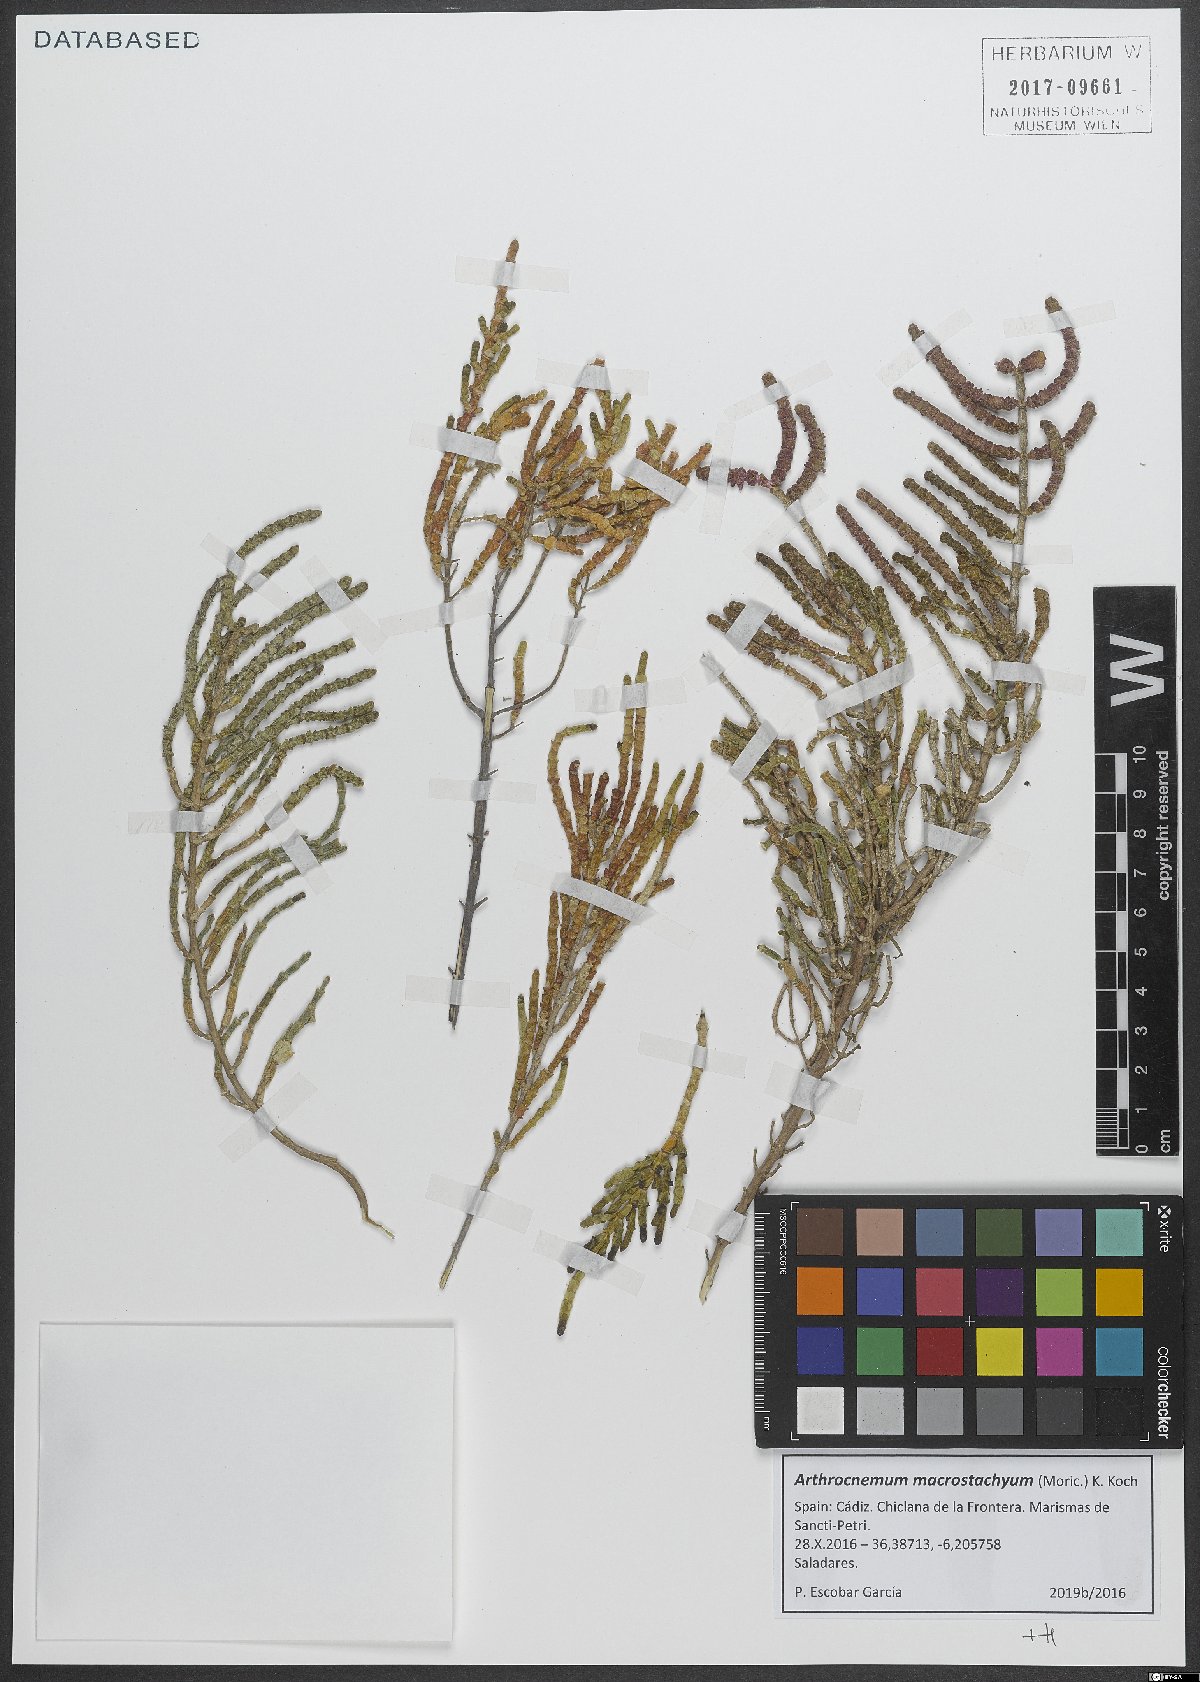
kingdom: Plantae
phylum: Tracheophyta
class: Magnoliopsida
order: Caryophyllales
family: Amaranthaceae
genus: Arthrocaulon
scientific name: Arthrocaulon macrostachyum
